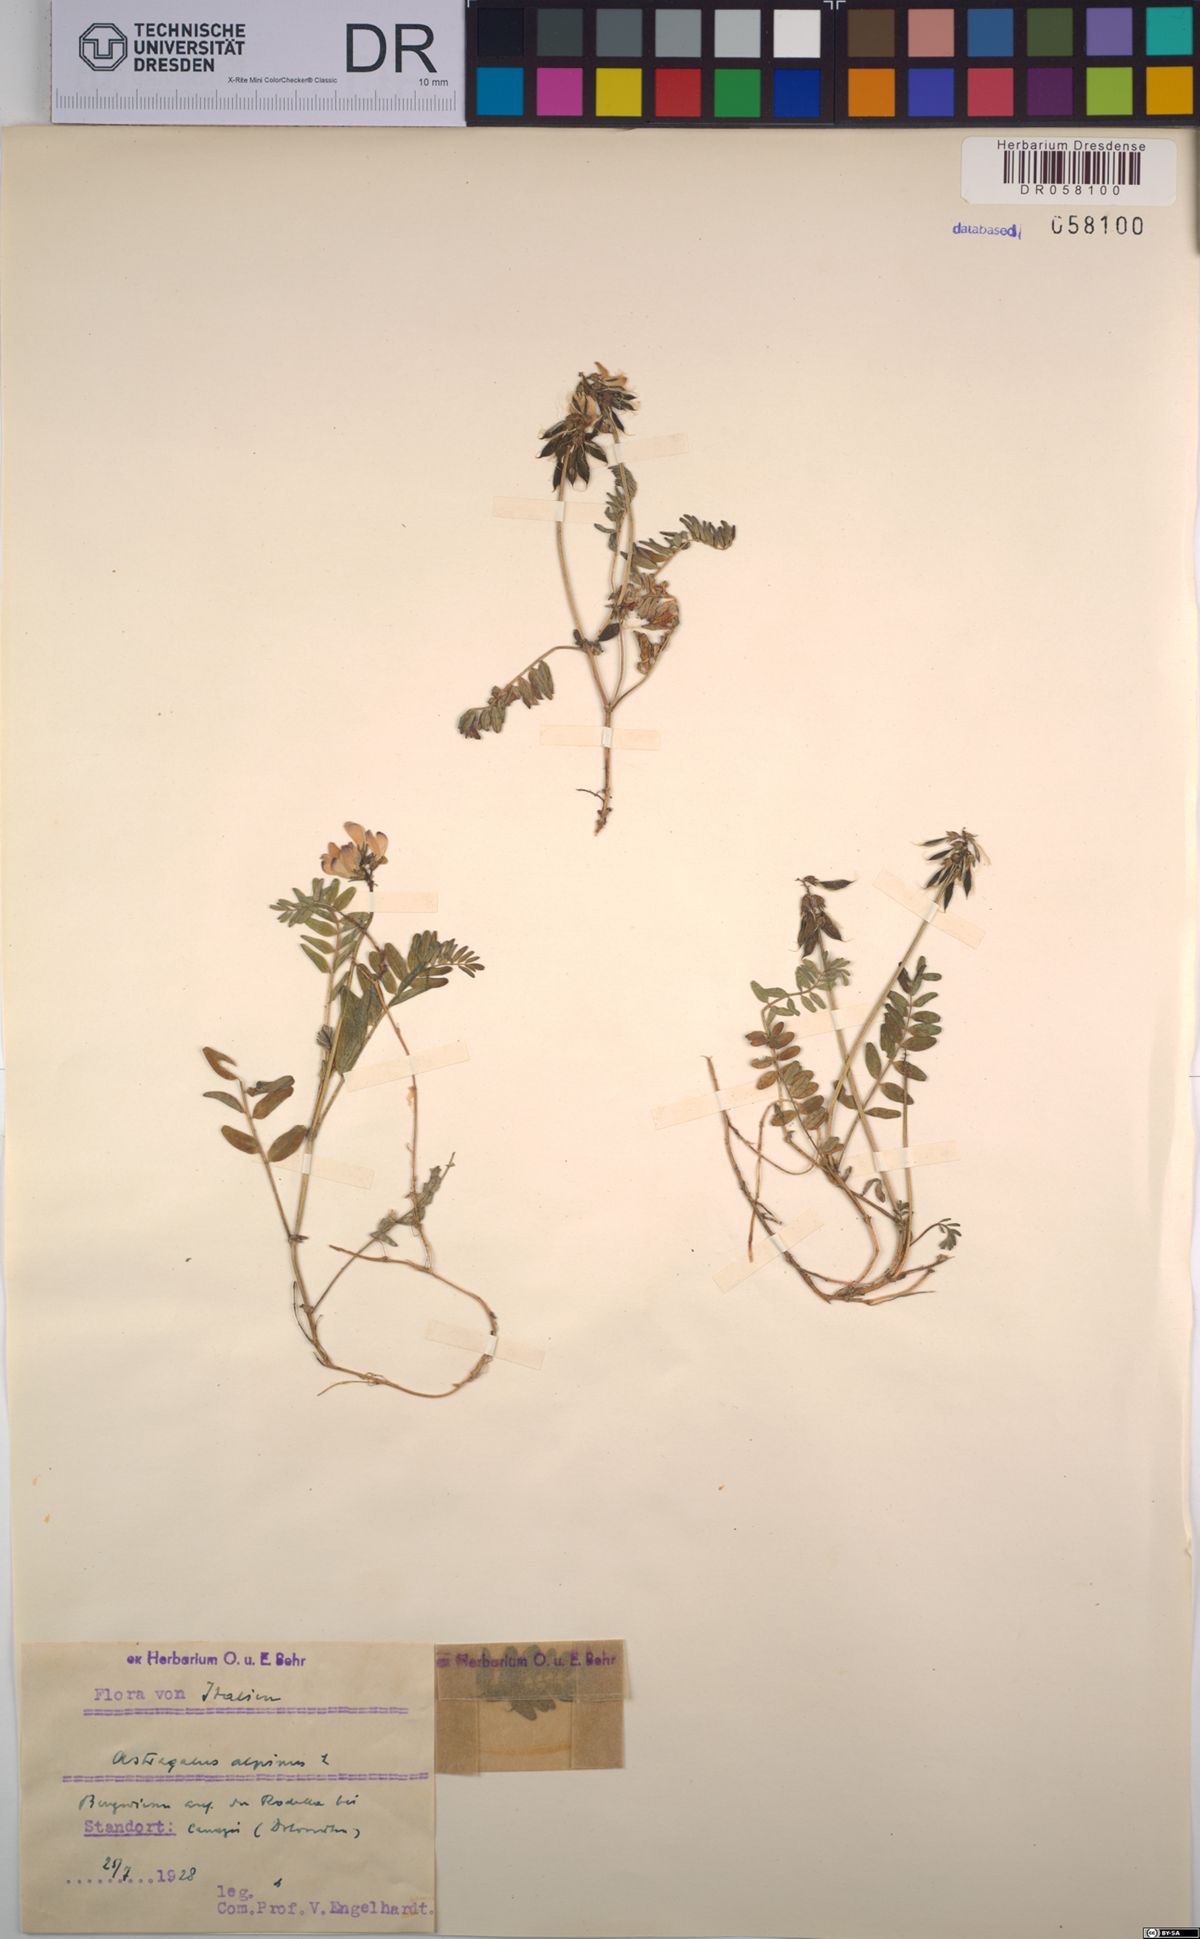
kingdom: Plantae
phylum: Tracheophyta
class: Magnoliopsida
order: Fabales
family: Fabaceae
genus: Astragalus
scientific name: Astragalus alpinus
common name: Alpine milk-vetch
